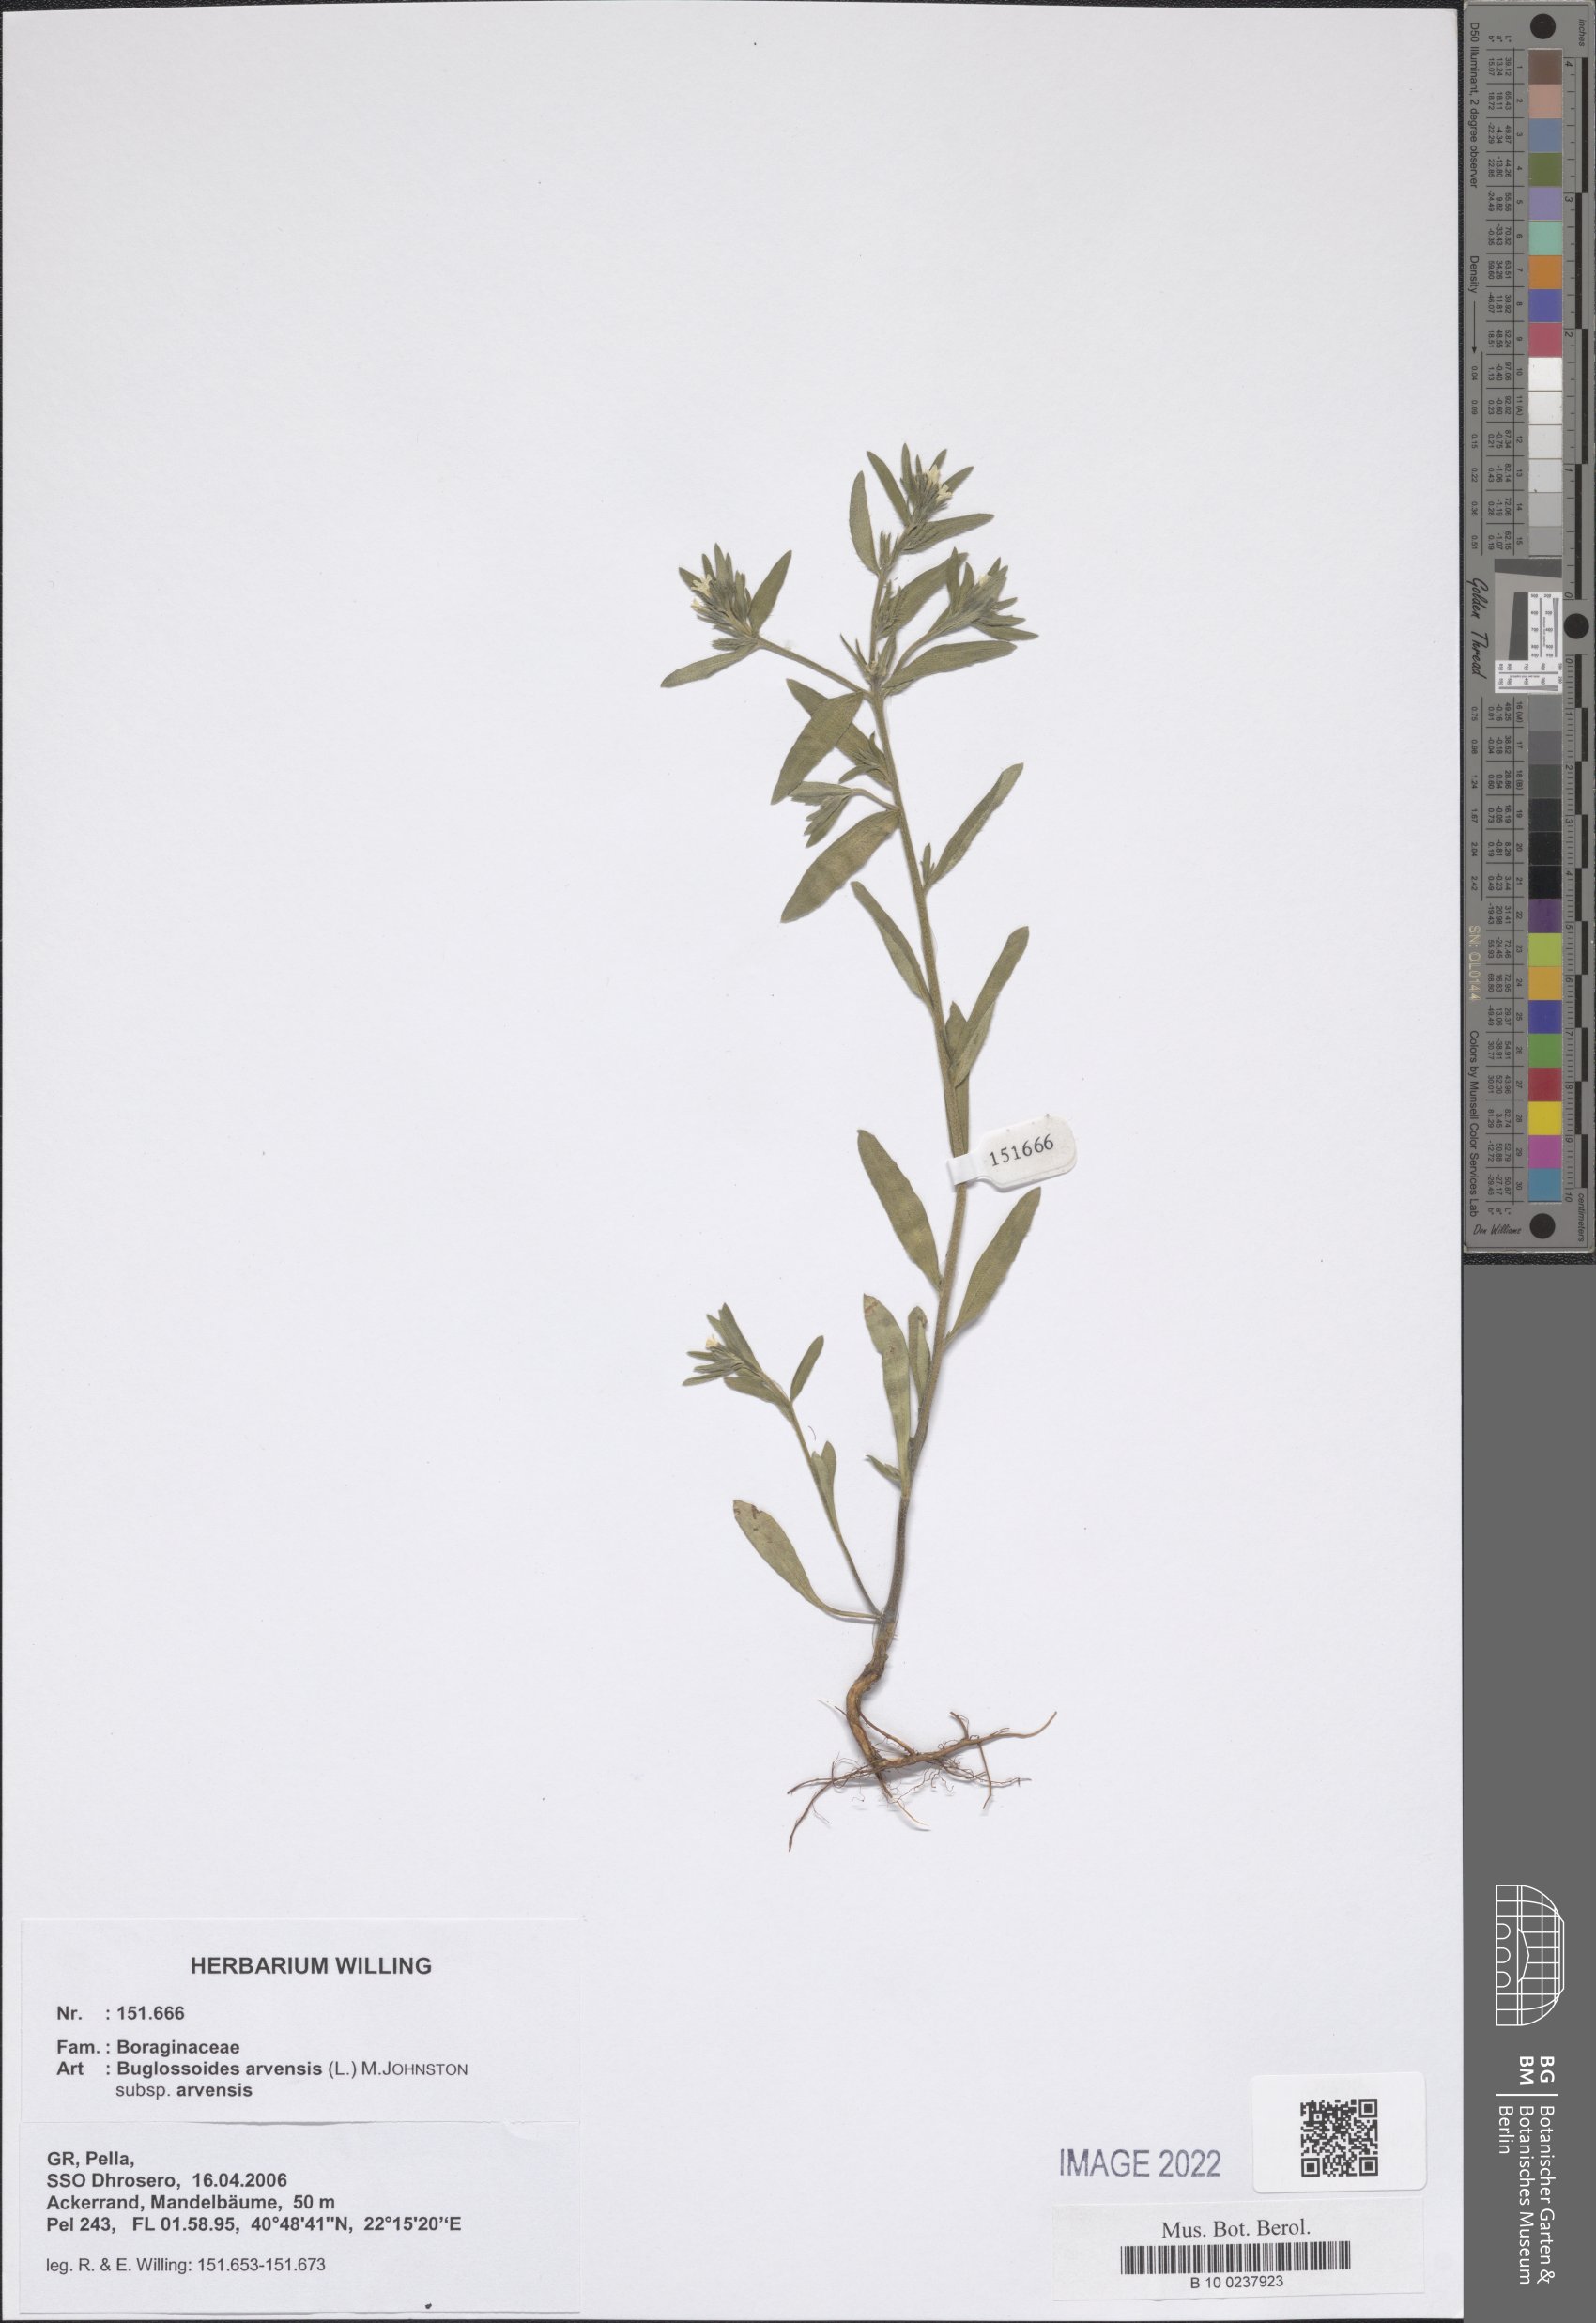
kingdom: Plantae
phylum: Tracheophyta
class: Magnoliopsida
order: Boraginales
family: Boraginaceae
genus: Buglossoides
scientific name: Buglossoides arvensis
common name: Corn gromwell
